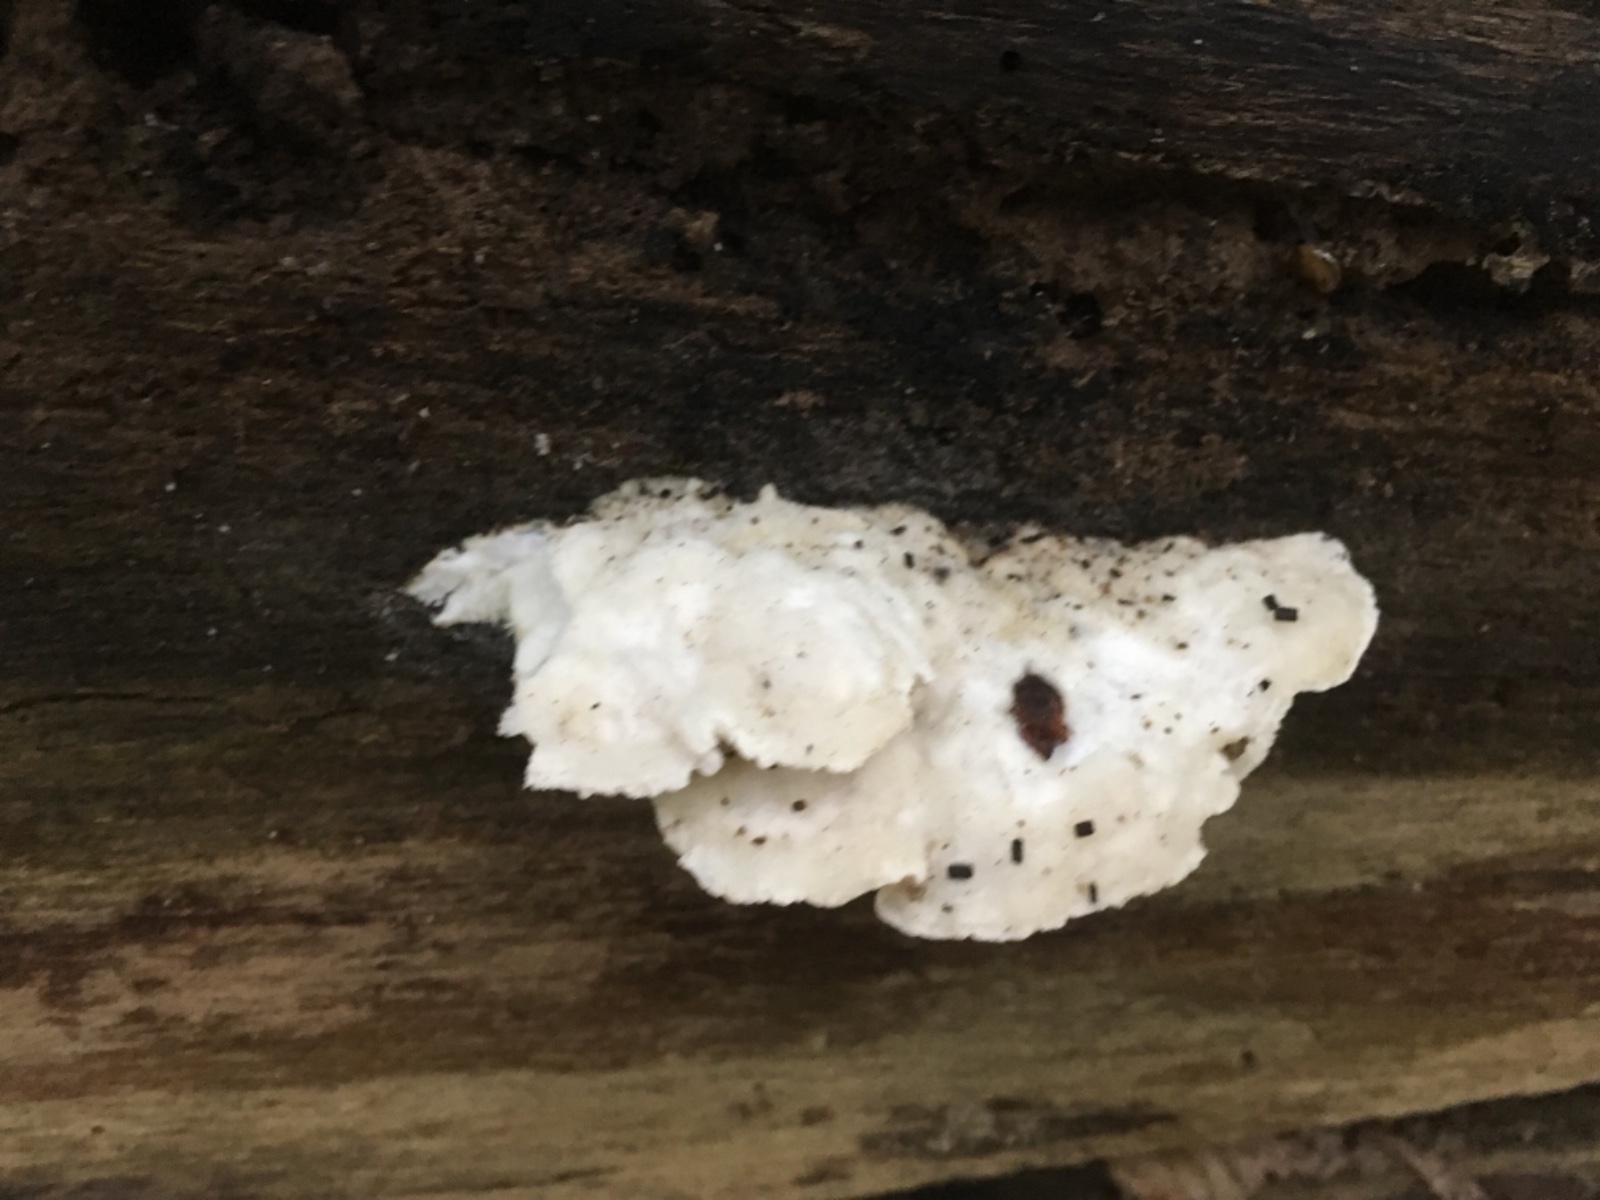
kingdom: Fungi
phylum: Basidiomycota
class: Agaricomycetes
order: Polyporales
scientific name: Polyporales
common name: poresvampordenen
